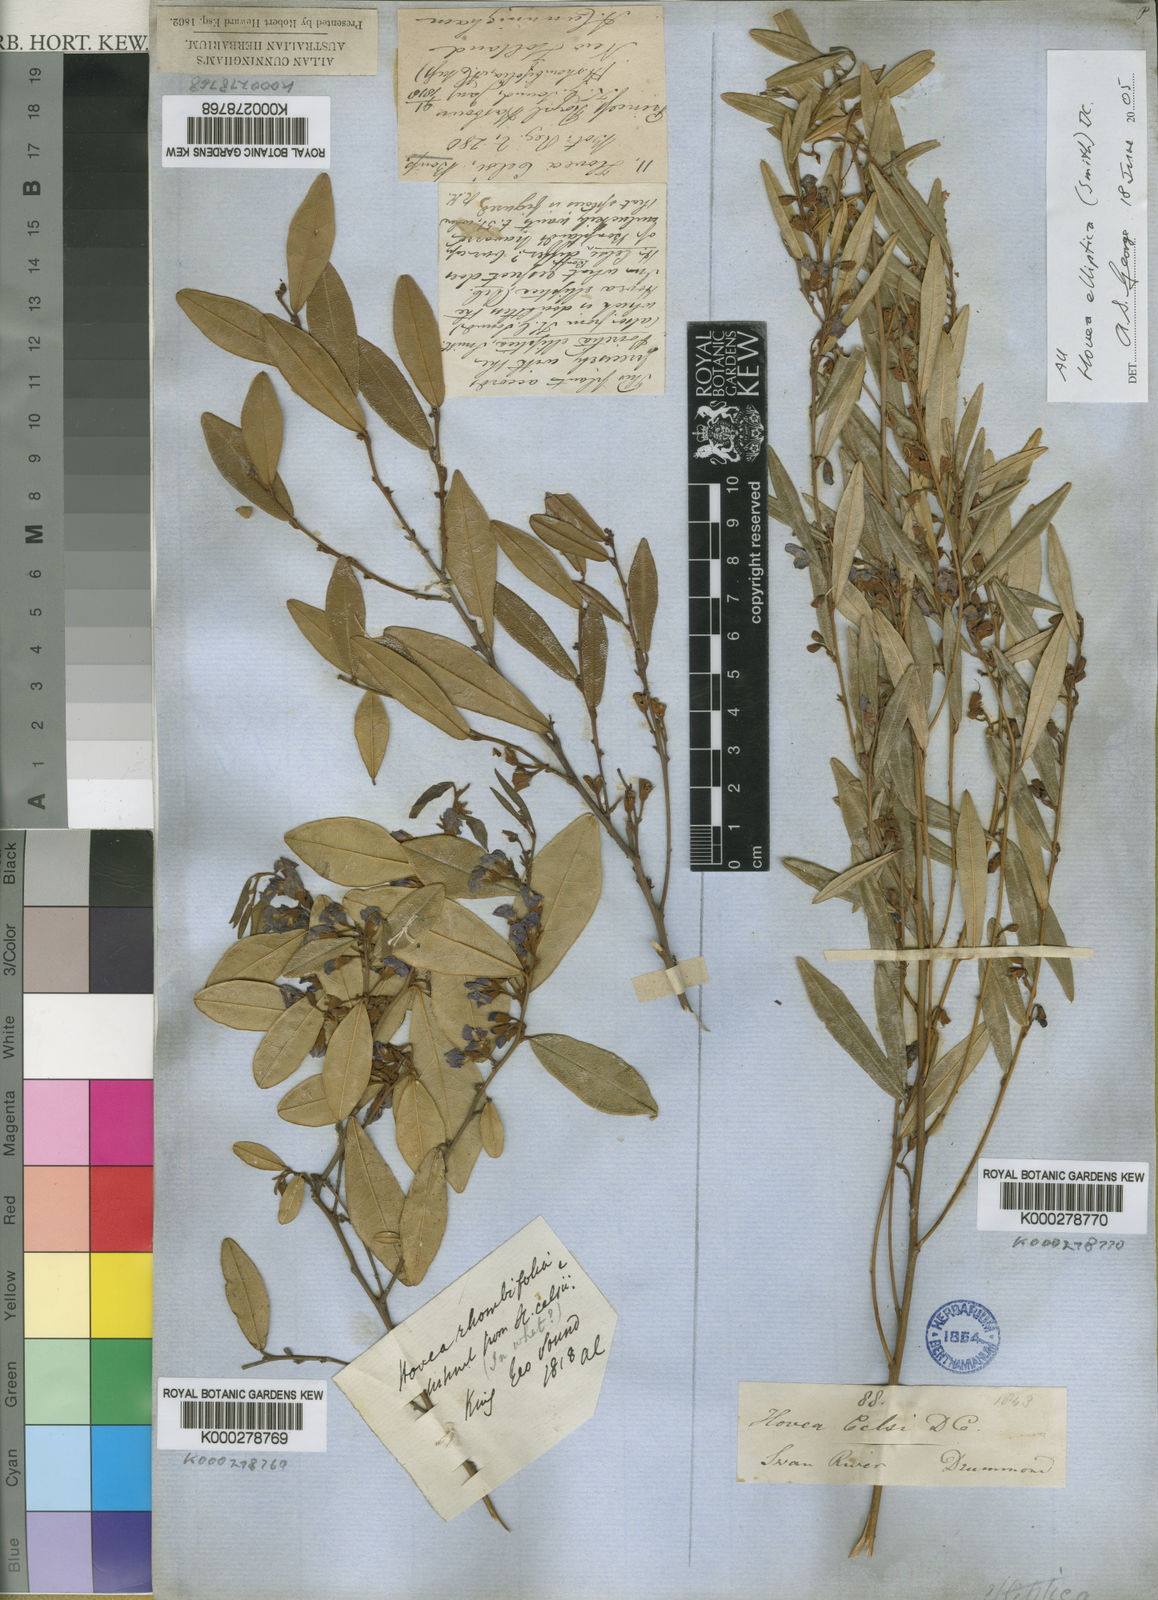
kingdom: Plantae
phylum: Tracheophyta
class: Magnoliopsida
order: Fabales
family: Fabaceae
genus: Hovea
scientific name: Hovea elliptica
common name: Tree hovea
